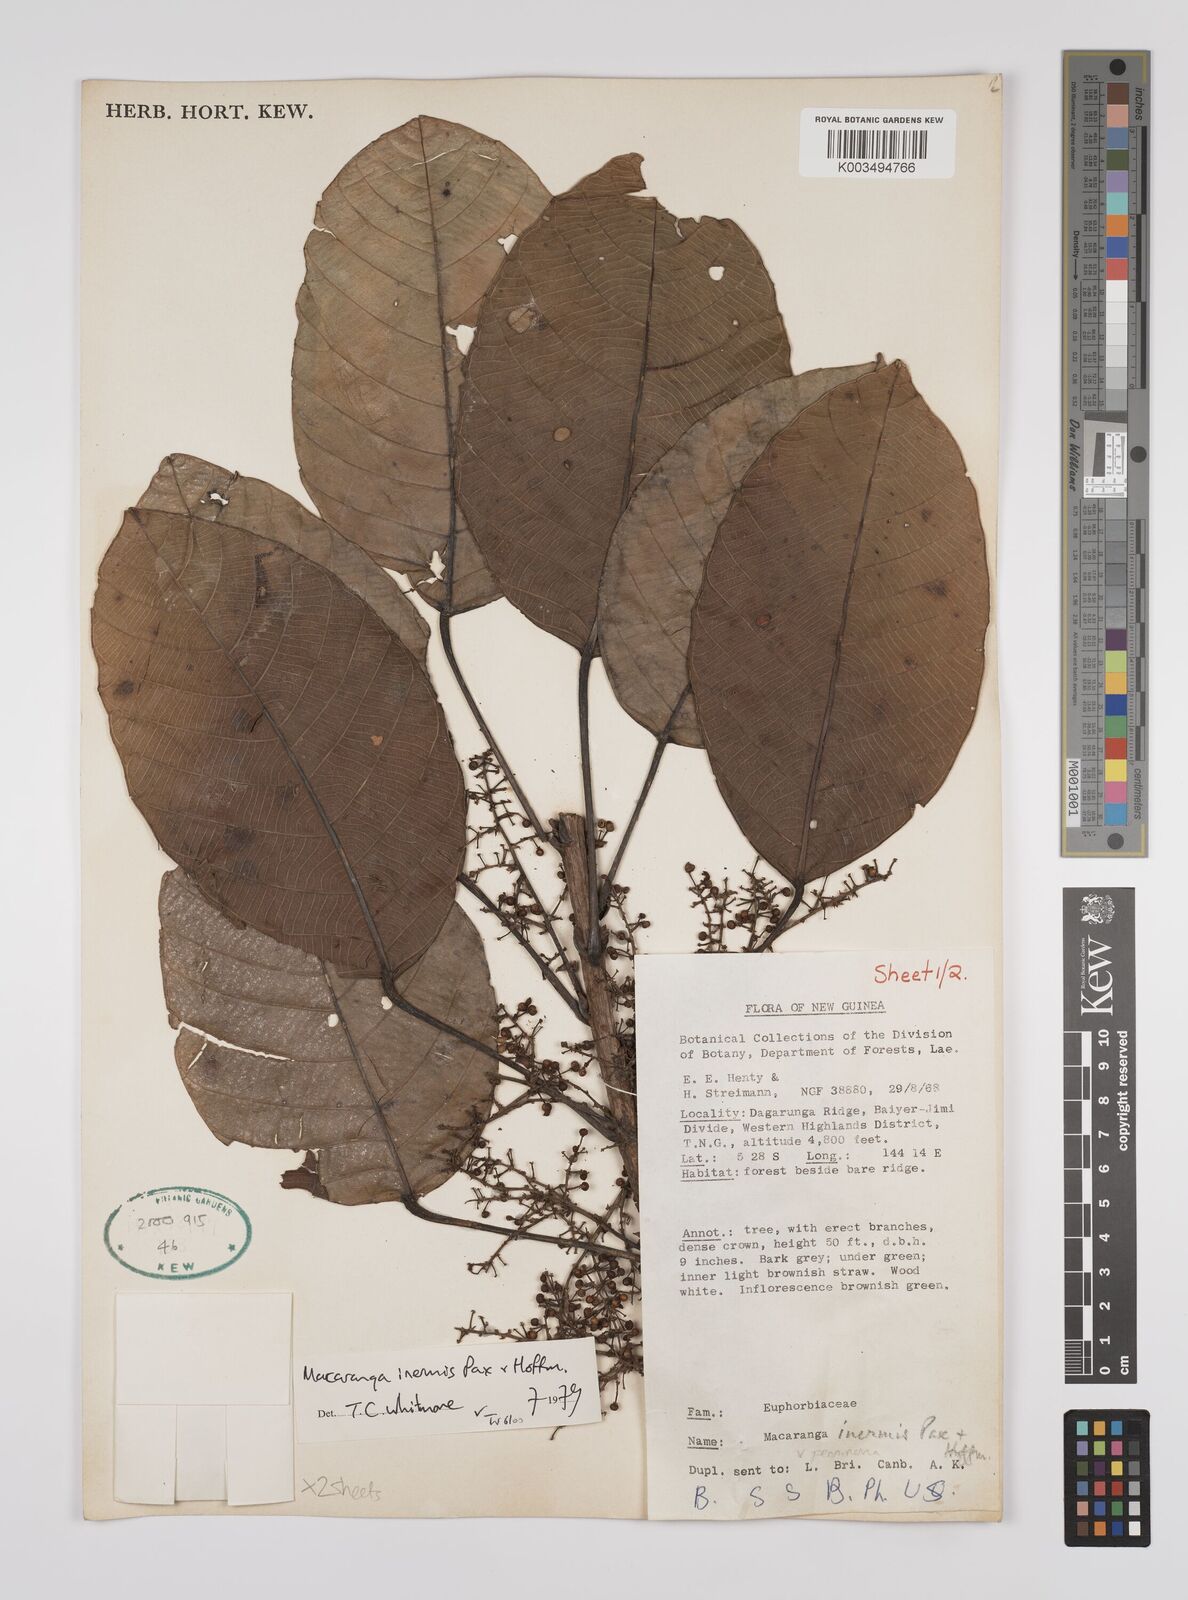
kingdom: Plantae
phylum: Tracheophyta
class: Magnoliopsida
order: Malpighiales
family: Euphorbiaceae
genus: Macaranga
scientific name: Macaranga inermis
